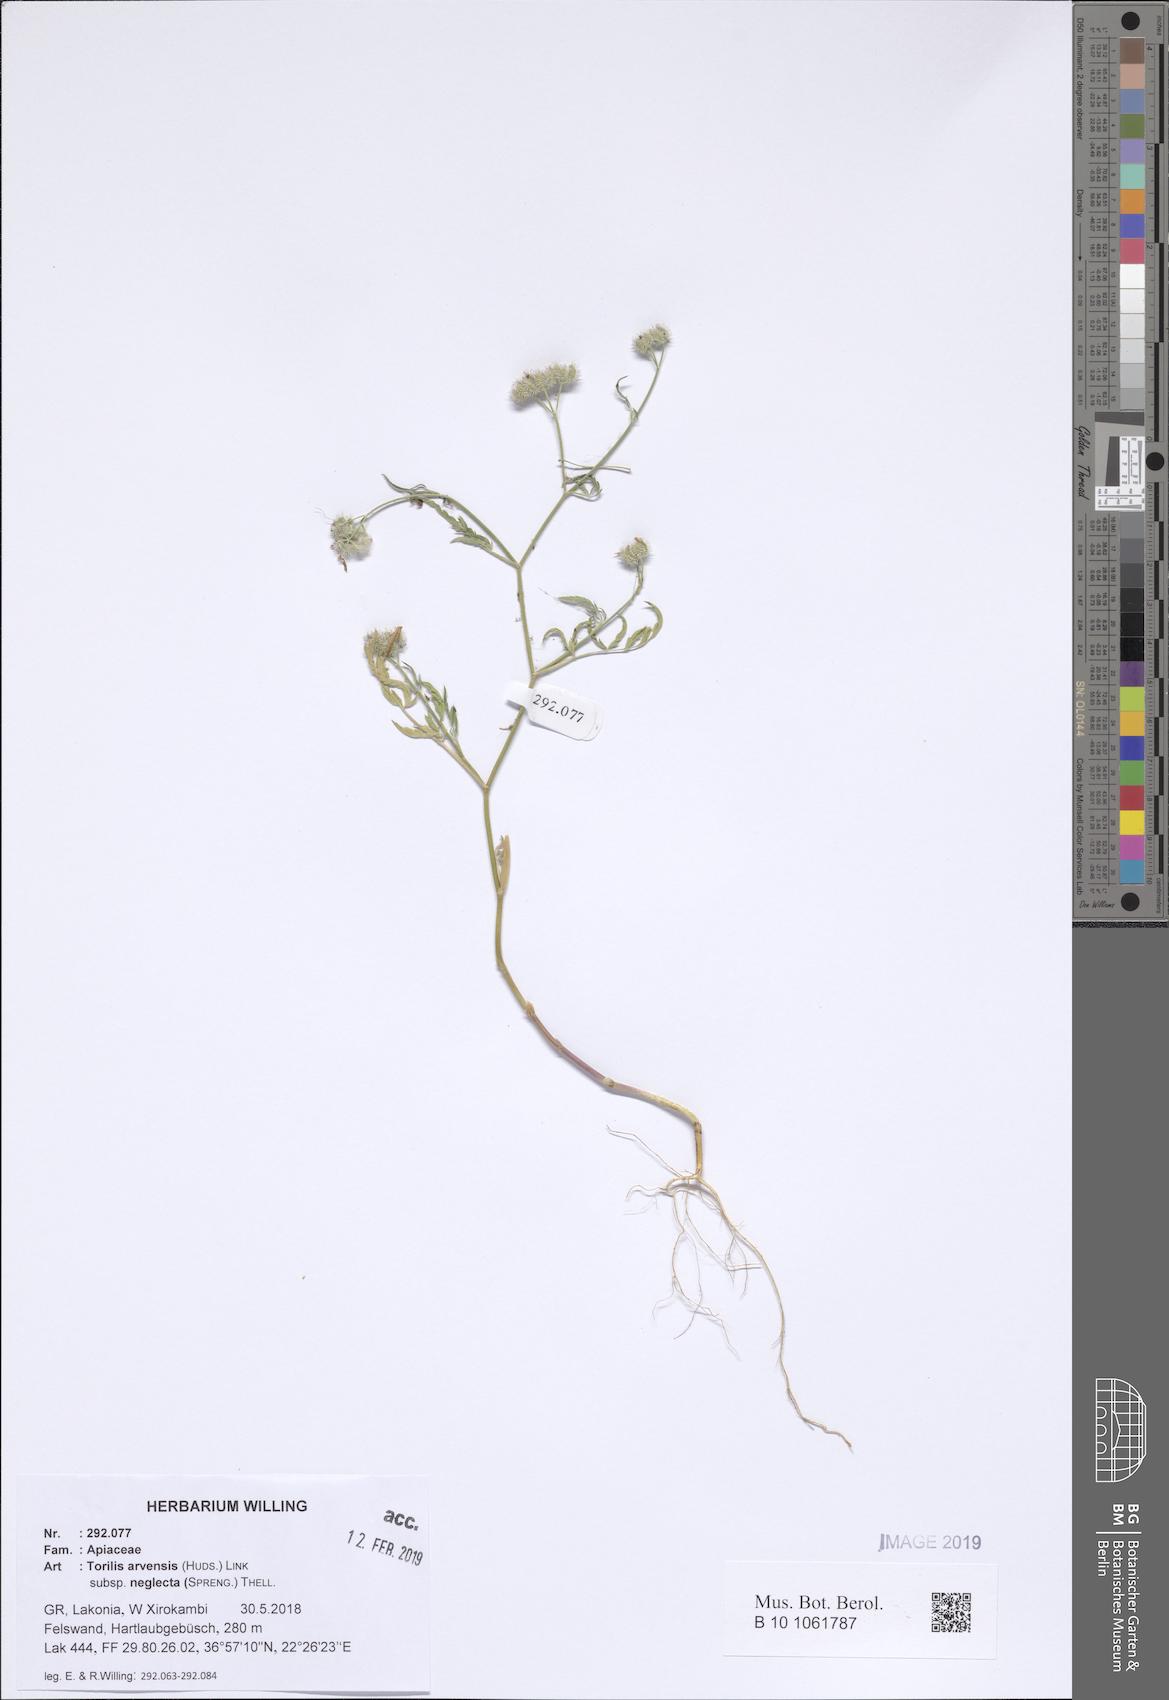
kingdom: Plantae
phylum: Tracheophyta
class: Magnoliopsida
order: Apiales
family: Apiaceae
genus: Torilis
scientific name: Torilis arvensis
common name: Spreading hedge-parsley
